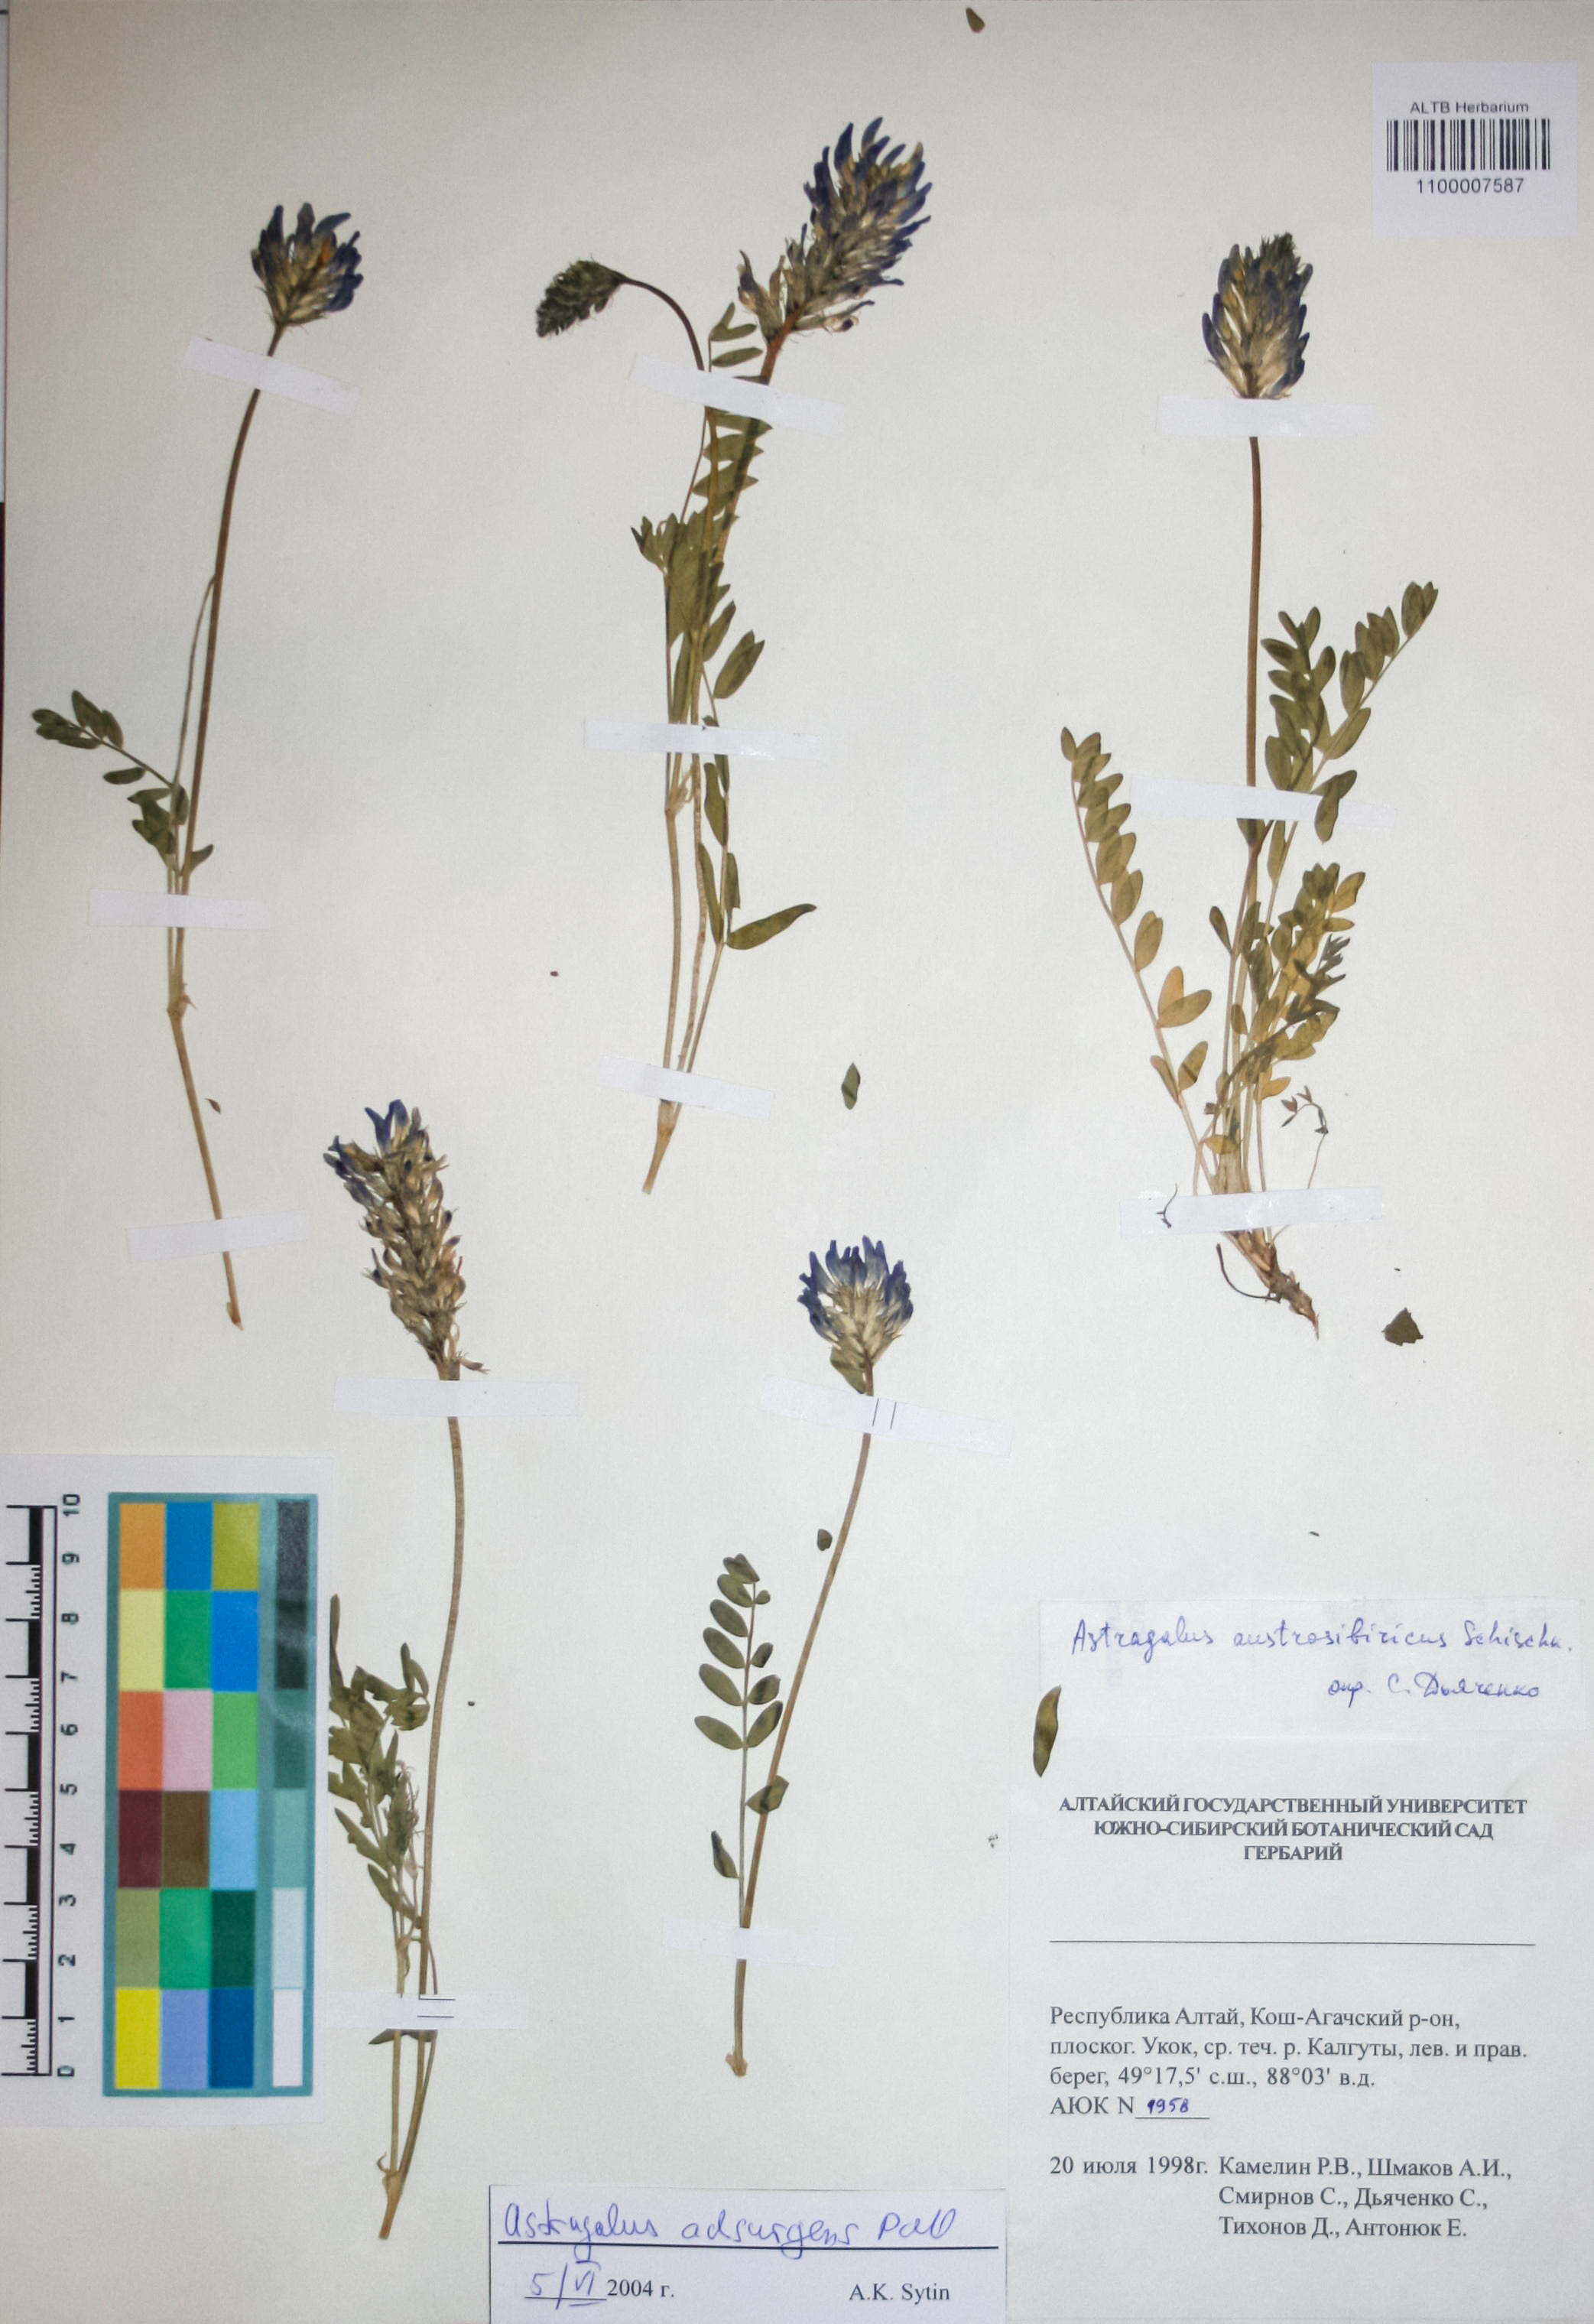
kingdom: Plantae
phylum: Tracheophyta
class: Magnoliopsida
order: Fabales
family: Fabaceae
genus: Astragalus
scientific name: Astragalus laxmannii
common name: Laxmann's milk-vetch
